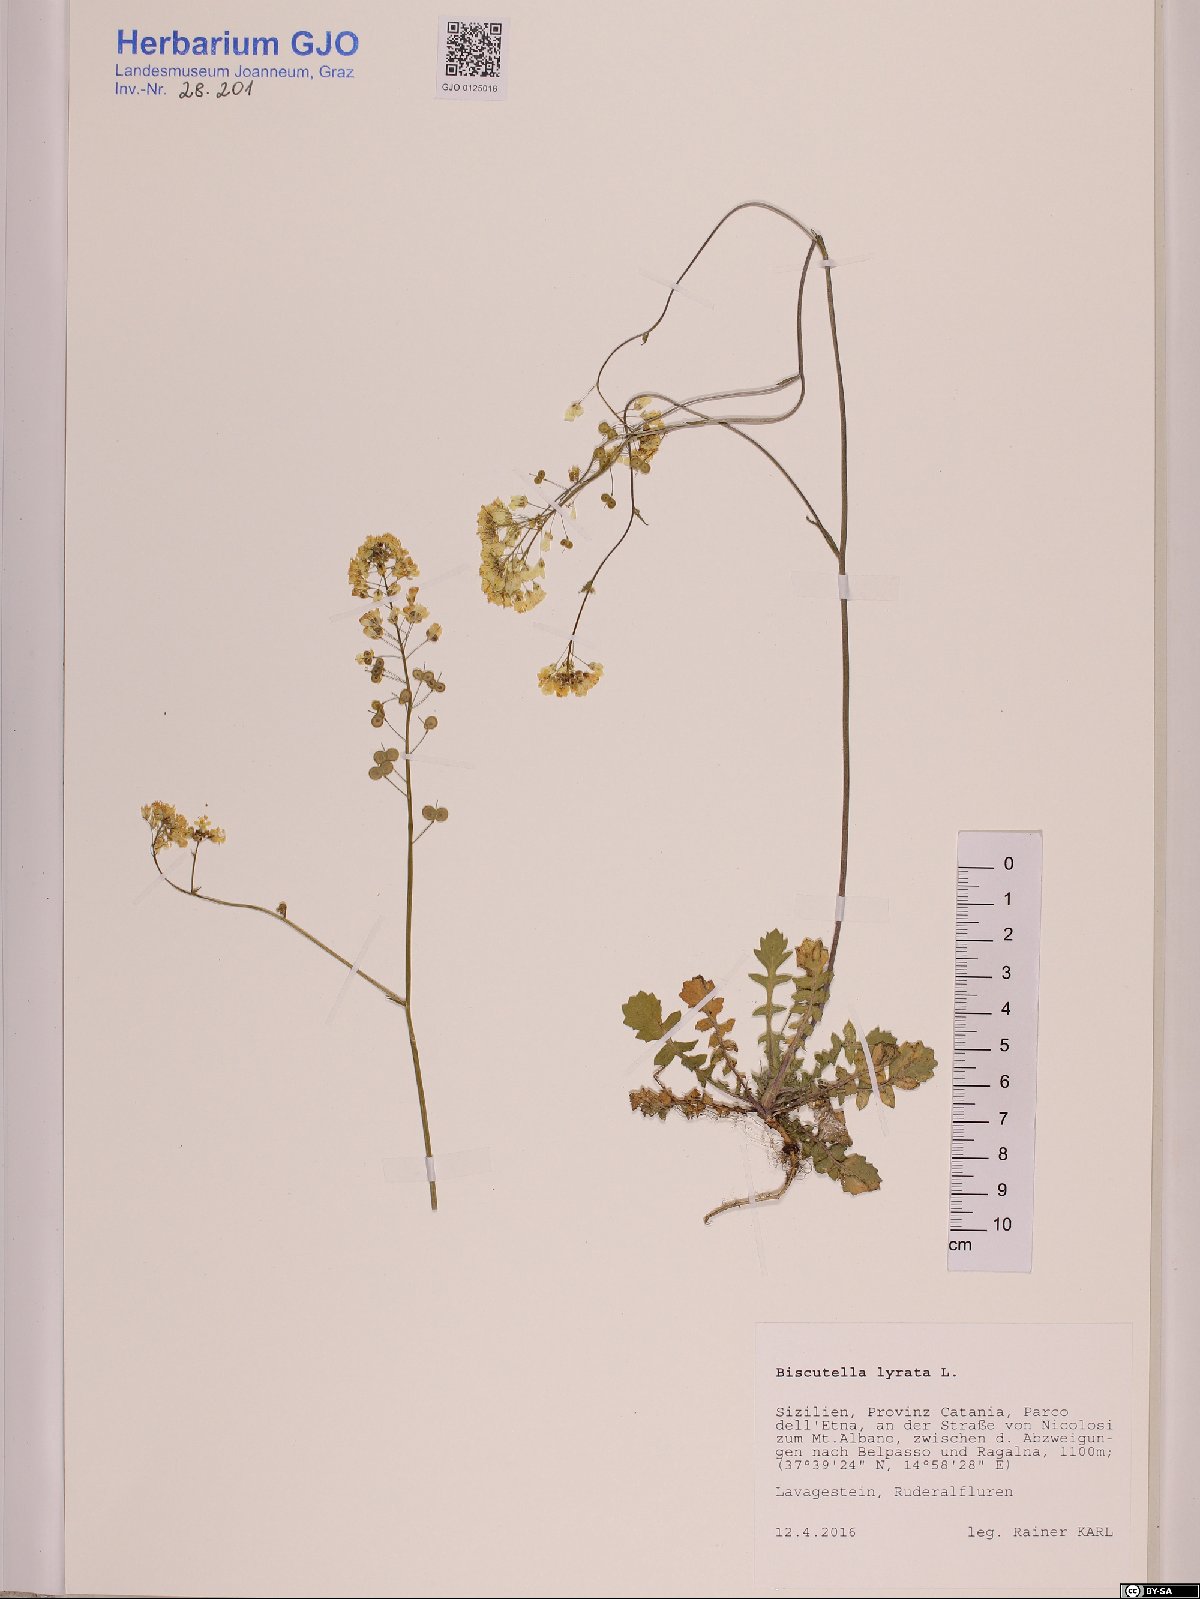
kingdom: Plantae
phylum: Tracheophyta
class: Magnoliopsida
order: Brassicales
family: Brassicaceae
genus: Biscutella
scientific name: Biscutella lyrata
